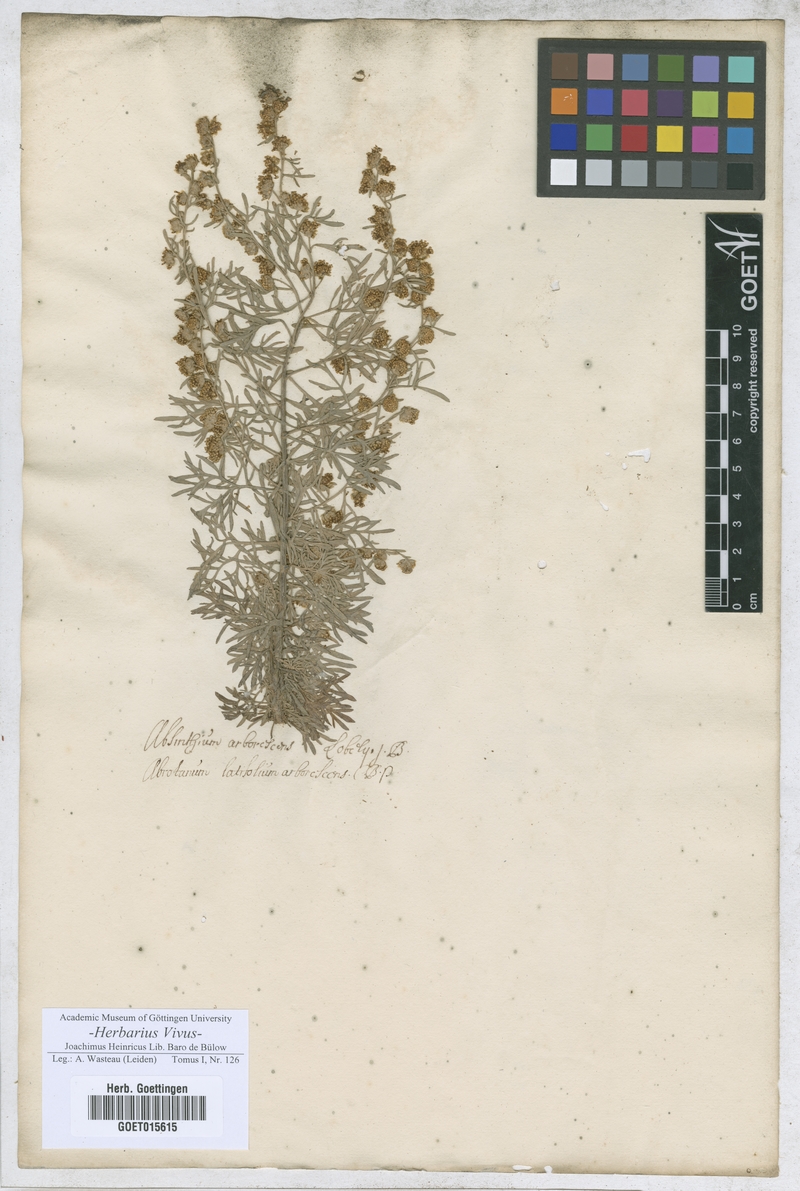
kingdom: Plantae
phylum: Tracheophyta
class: Magnoliopsida
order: Asterales
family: Asteraceae
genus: Artemisia
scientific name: Artemisia
